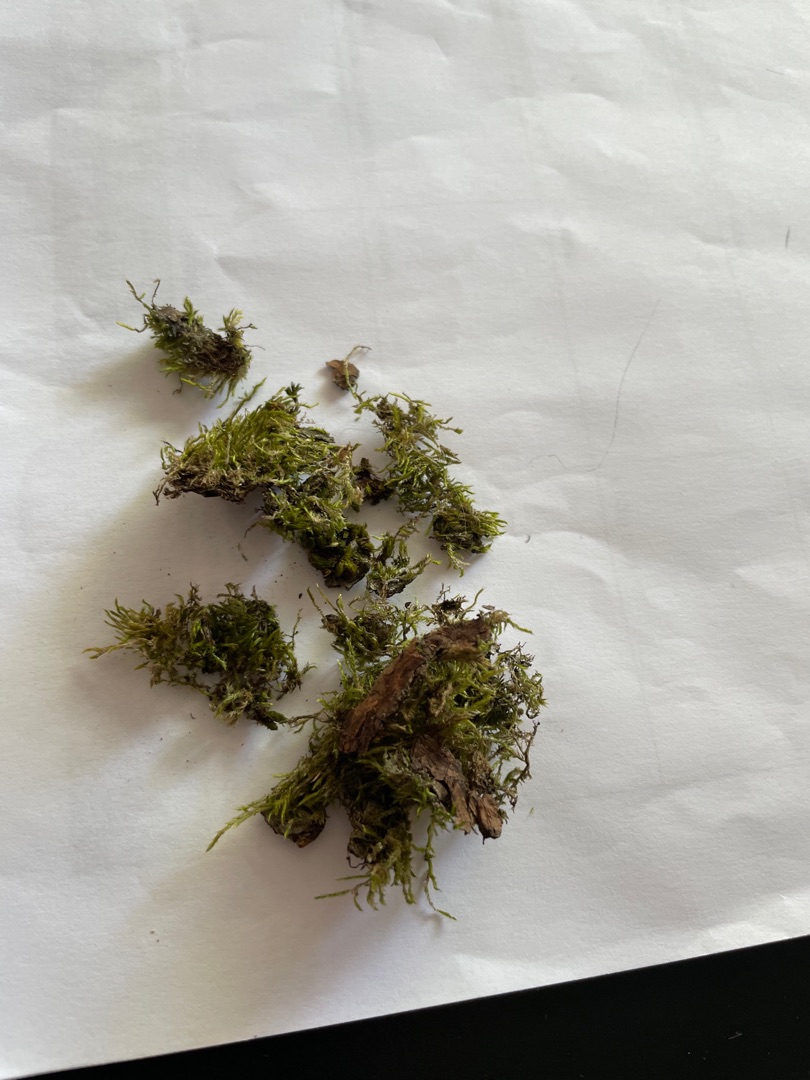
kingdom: Plantae
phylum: Bryophyta
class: Bryopsida
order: Hypnales
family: Hypnaceae
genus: Hypnum
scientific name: Hypnum
